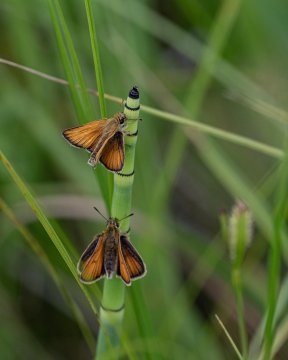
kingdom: Animalia
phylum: Arthropoda
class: Insecta
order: Lepidoptera
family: Hesperiidae
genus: Thymelicus
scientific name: Thymelicus lineola
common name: European Skipper
